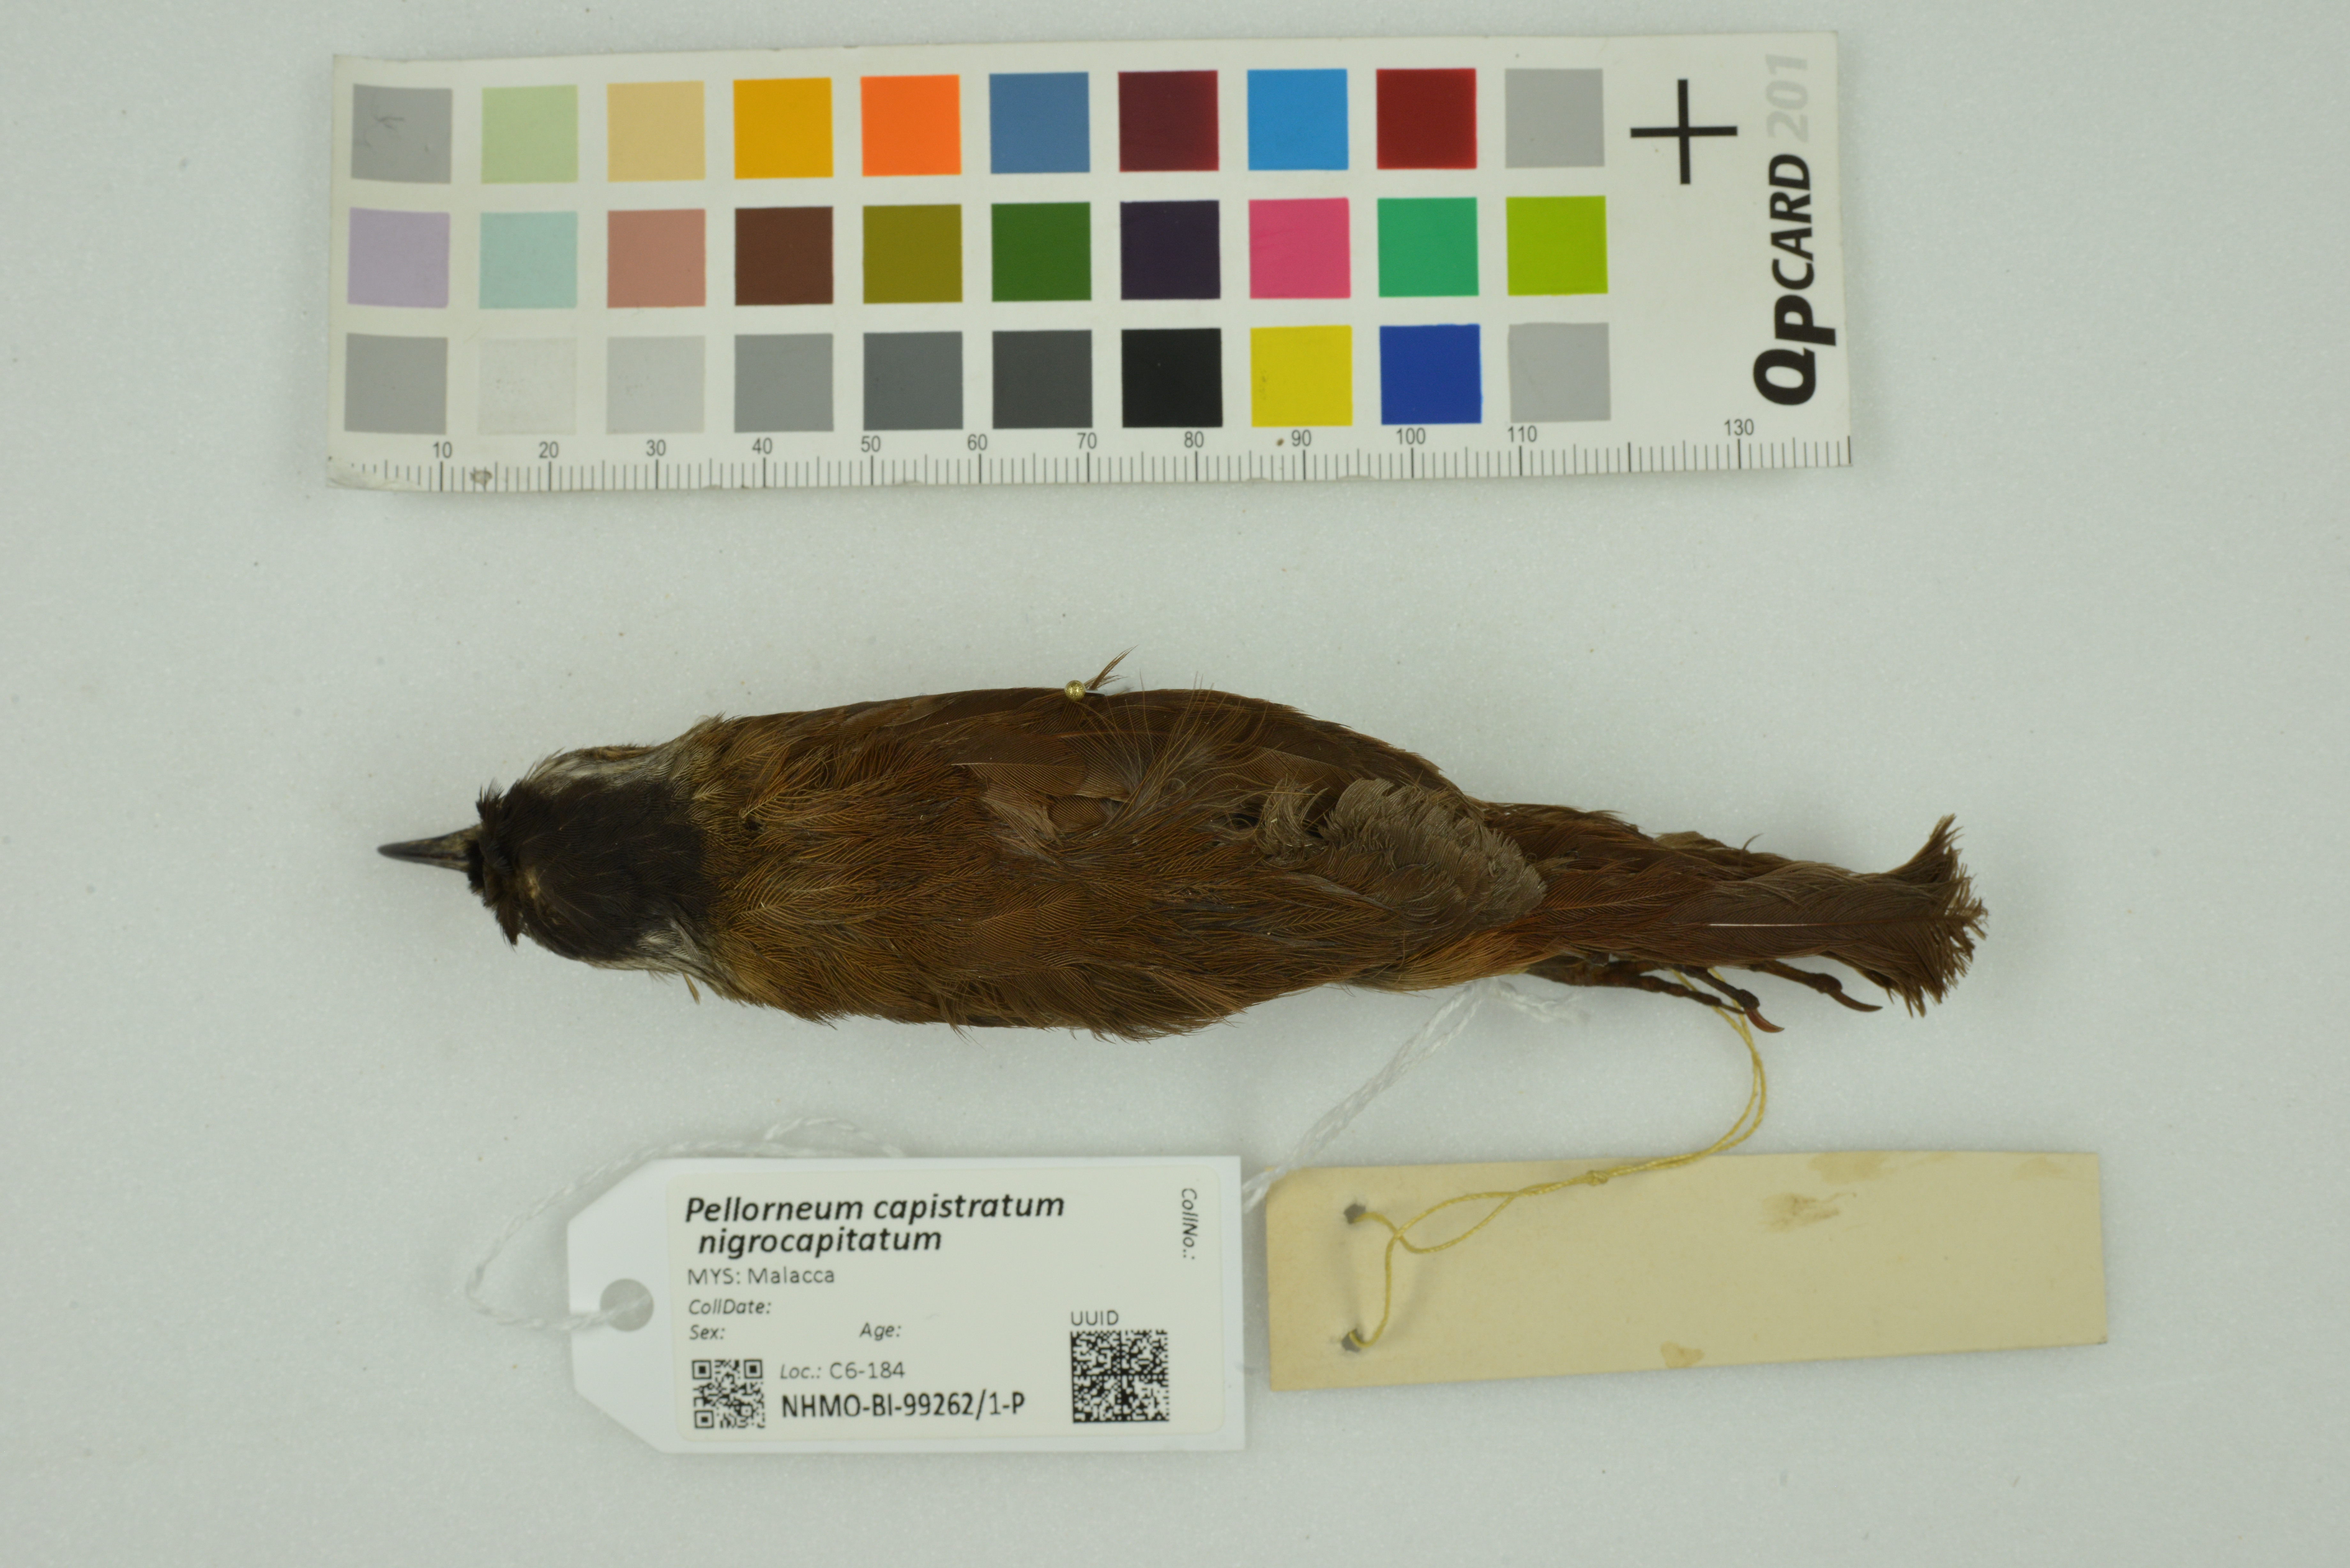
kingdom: Animalia
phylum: Chordata
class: Aves
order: Passeriformes
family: Pellorneidae
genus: Pellorneum
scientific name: Pellorneum capistratum
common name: Black-capped babbler
